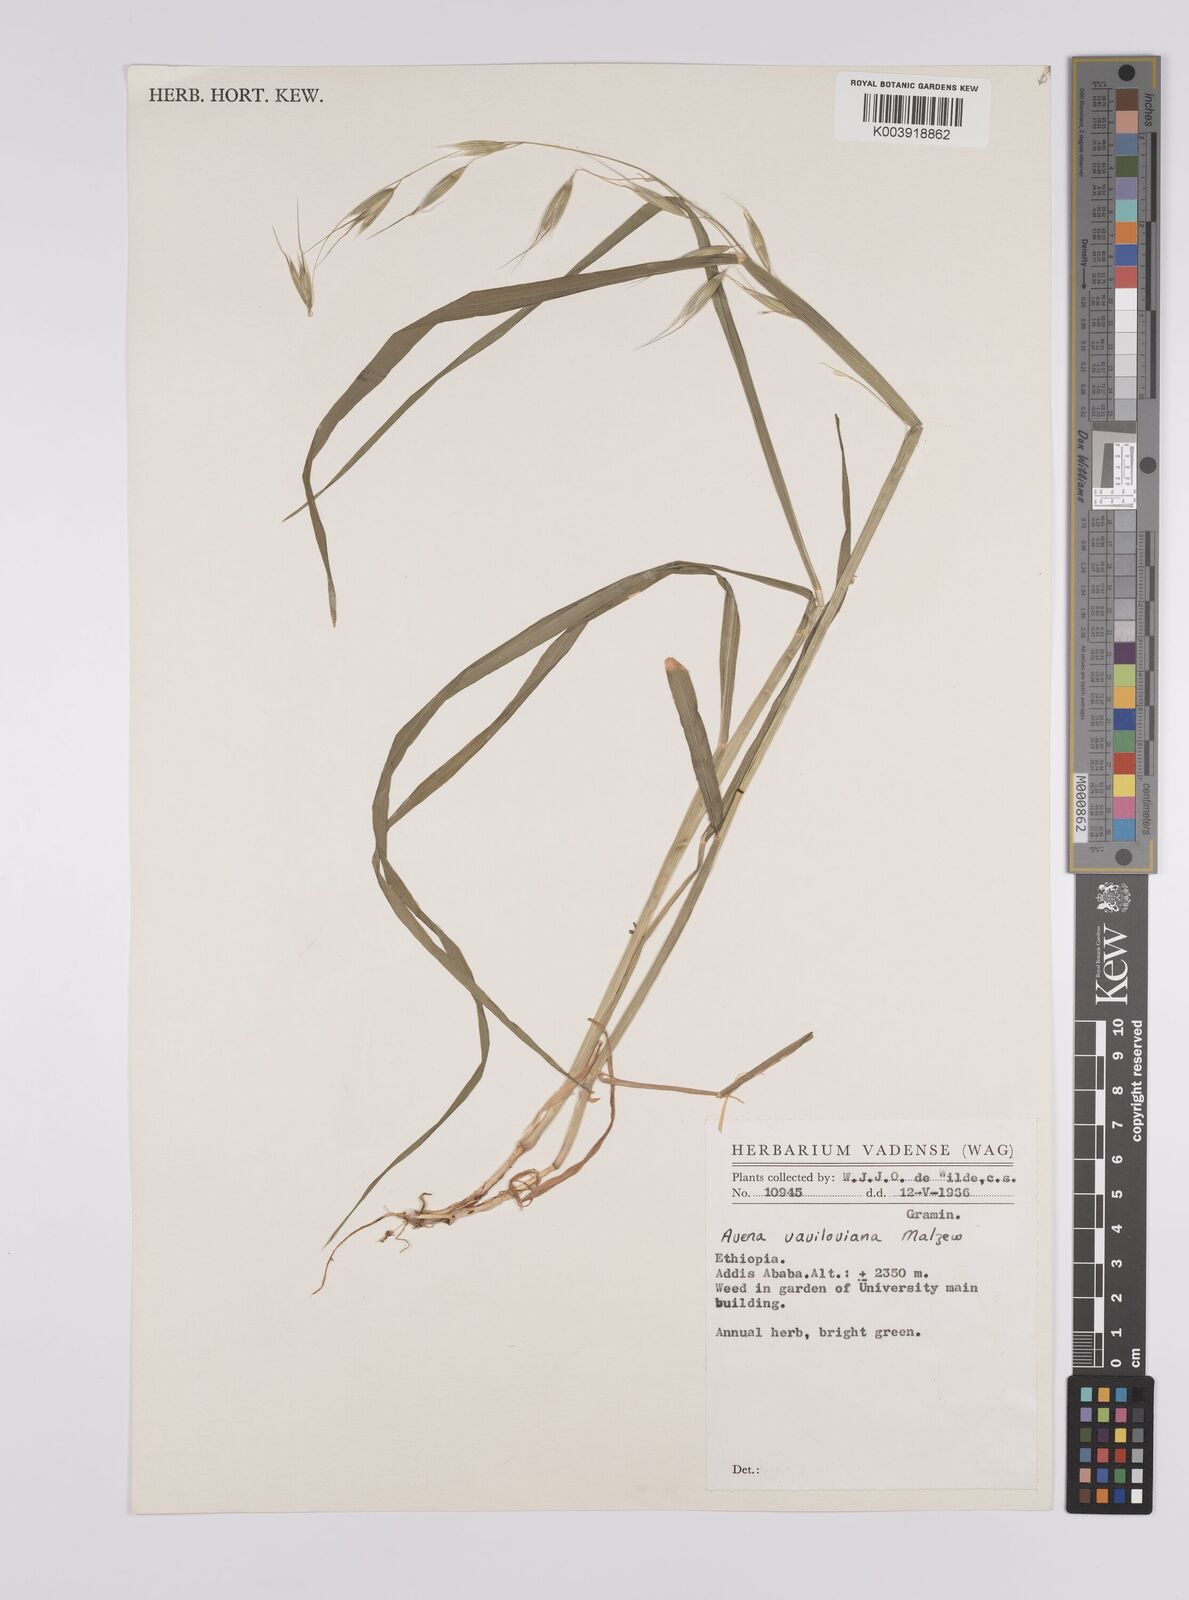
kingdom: Plantae
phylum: Tracheophyta
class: Liliopsida
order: Poales
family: Poaceae
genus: Avena
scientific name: Avena vaviloviana
